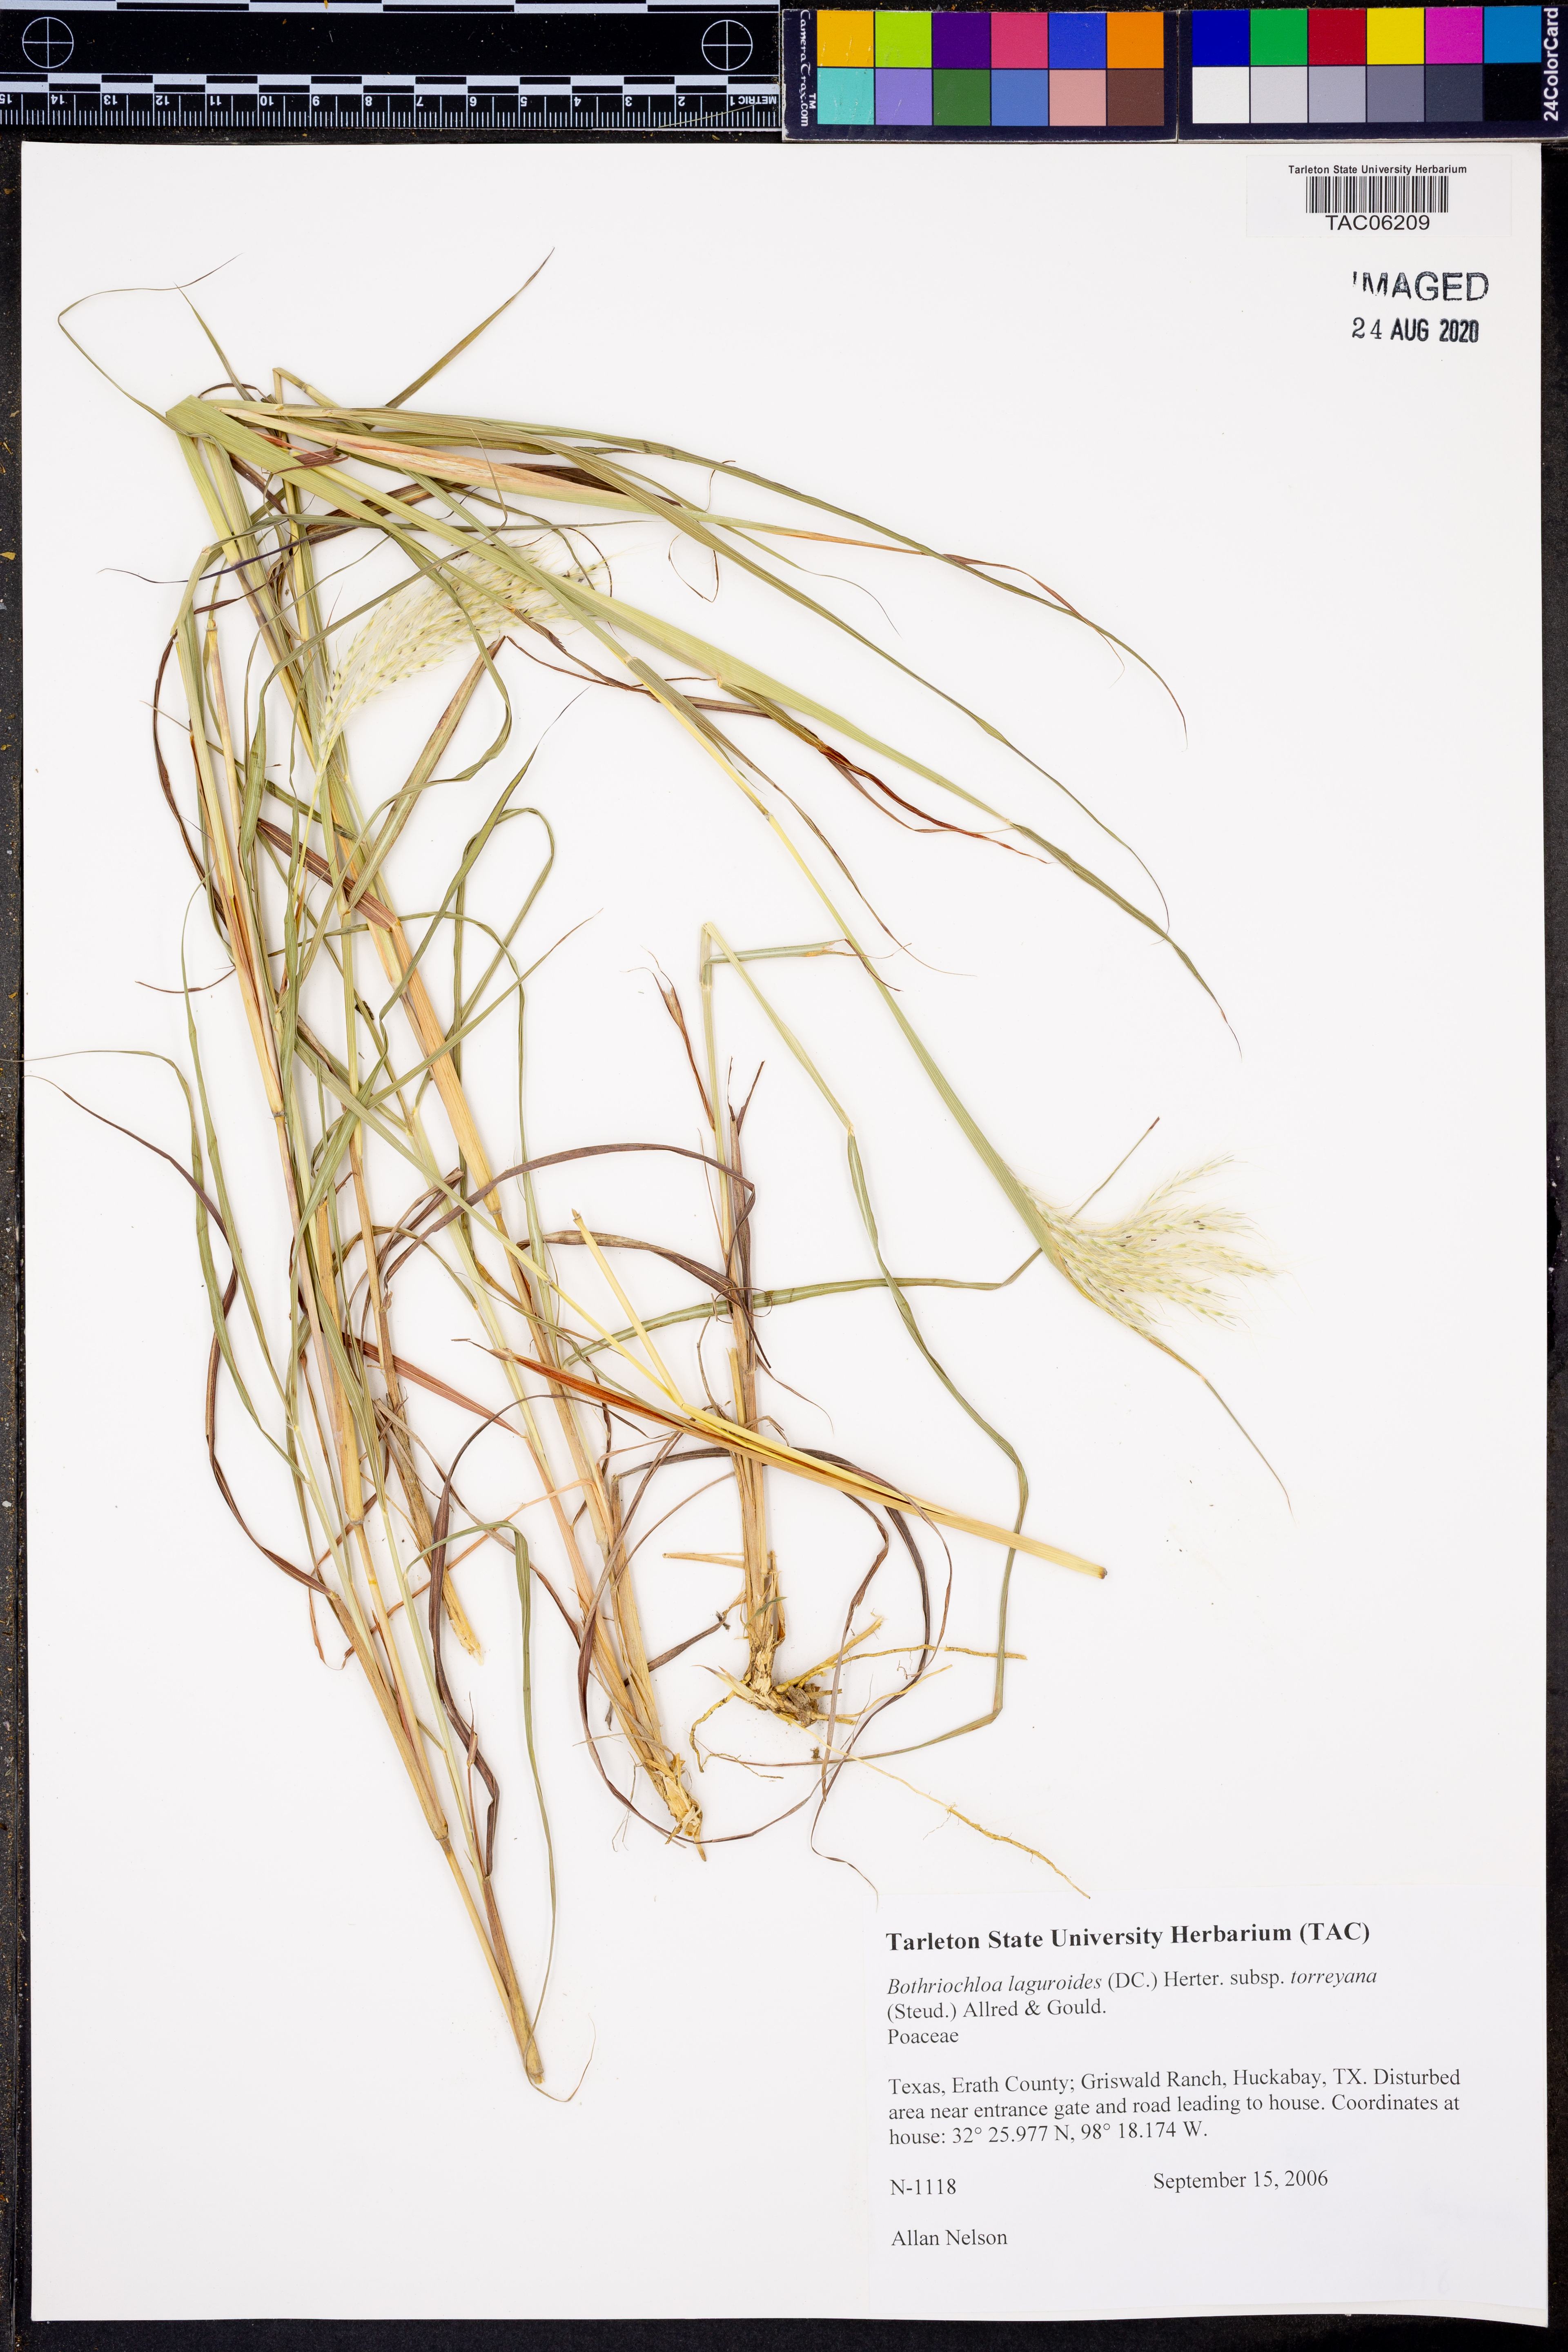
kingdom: Plantae
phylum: Tracheophyta
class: Liliopsida
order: Poales
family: Poaceae
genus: Bothriochloa
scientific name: Bothriochloa laguroides
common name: Silver bluestem
